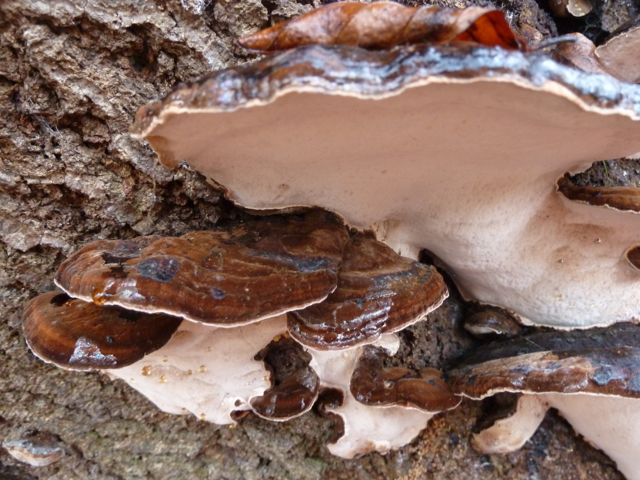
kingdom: Fungi
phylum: Basidiomycota
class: Agaricomycetes
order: Polyporales
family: Ischnodermataceae
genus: Ischnoderma
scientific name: Ischnoderma resinosum
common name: løv-tjæreporesvamp
